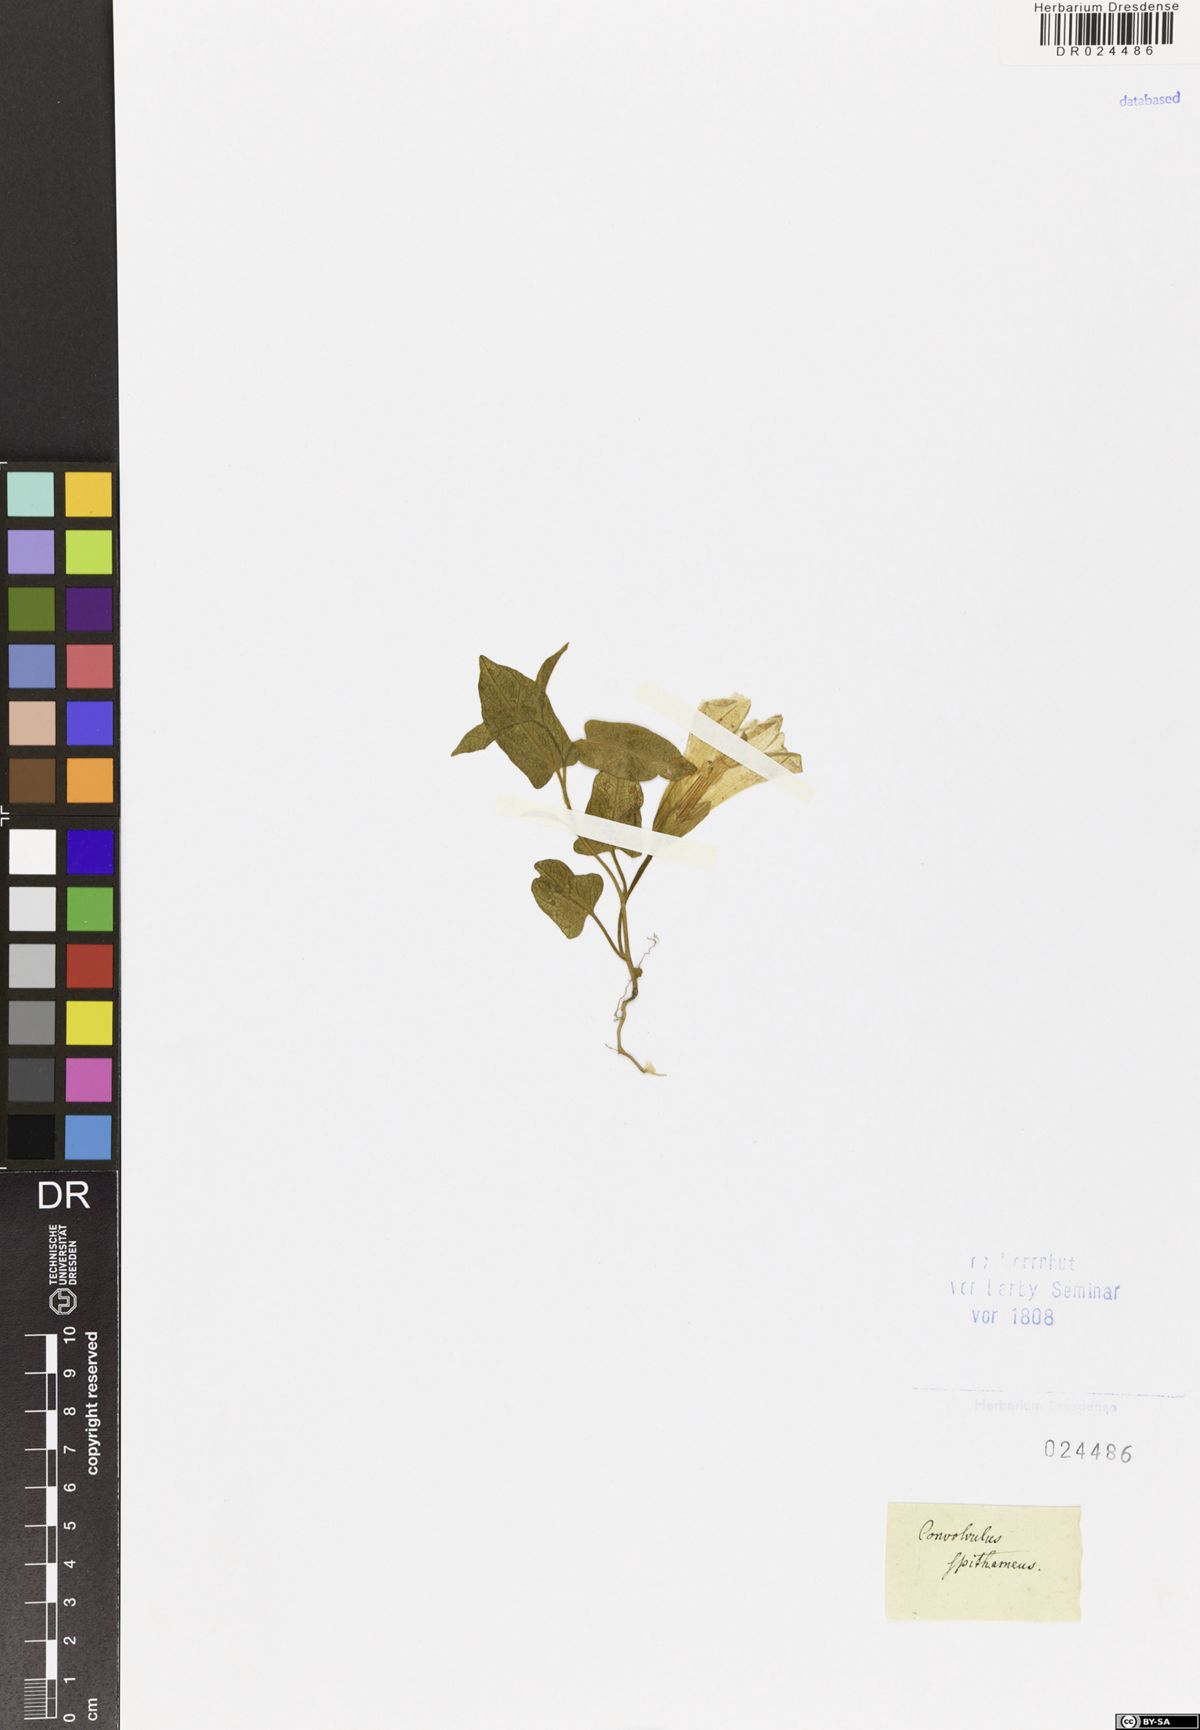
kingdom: Plantae
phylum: Tracheophyta
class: Magnoliopsida
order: Solanales
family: Convolvulaceae
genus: Calystegia
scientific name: Calystegia spithamaea
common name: Dwarf bindweed
